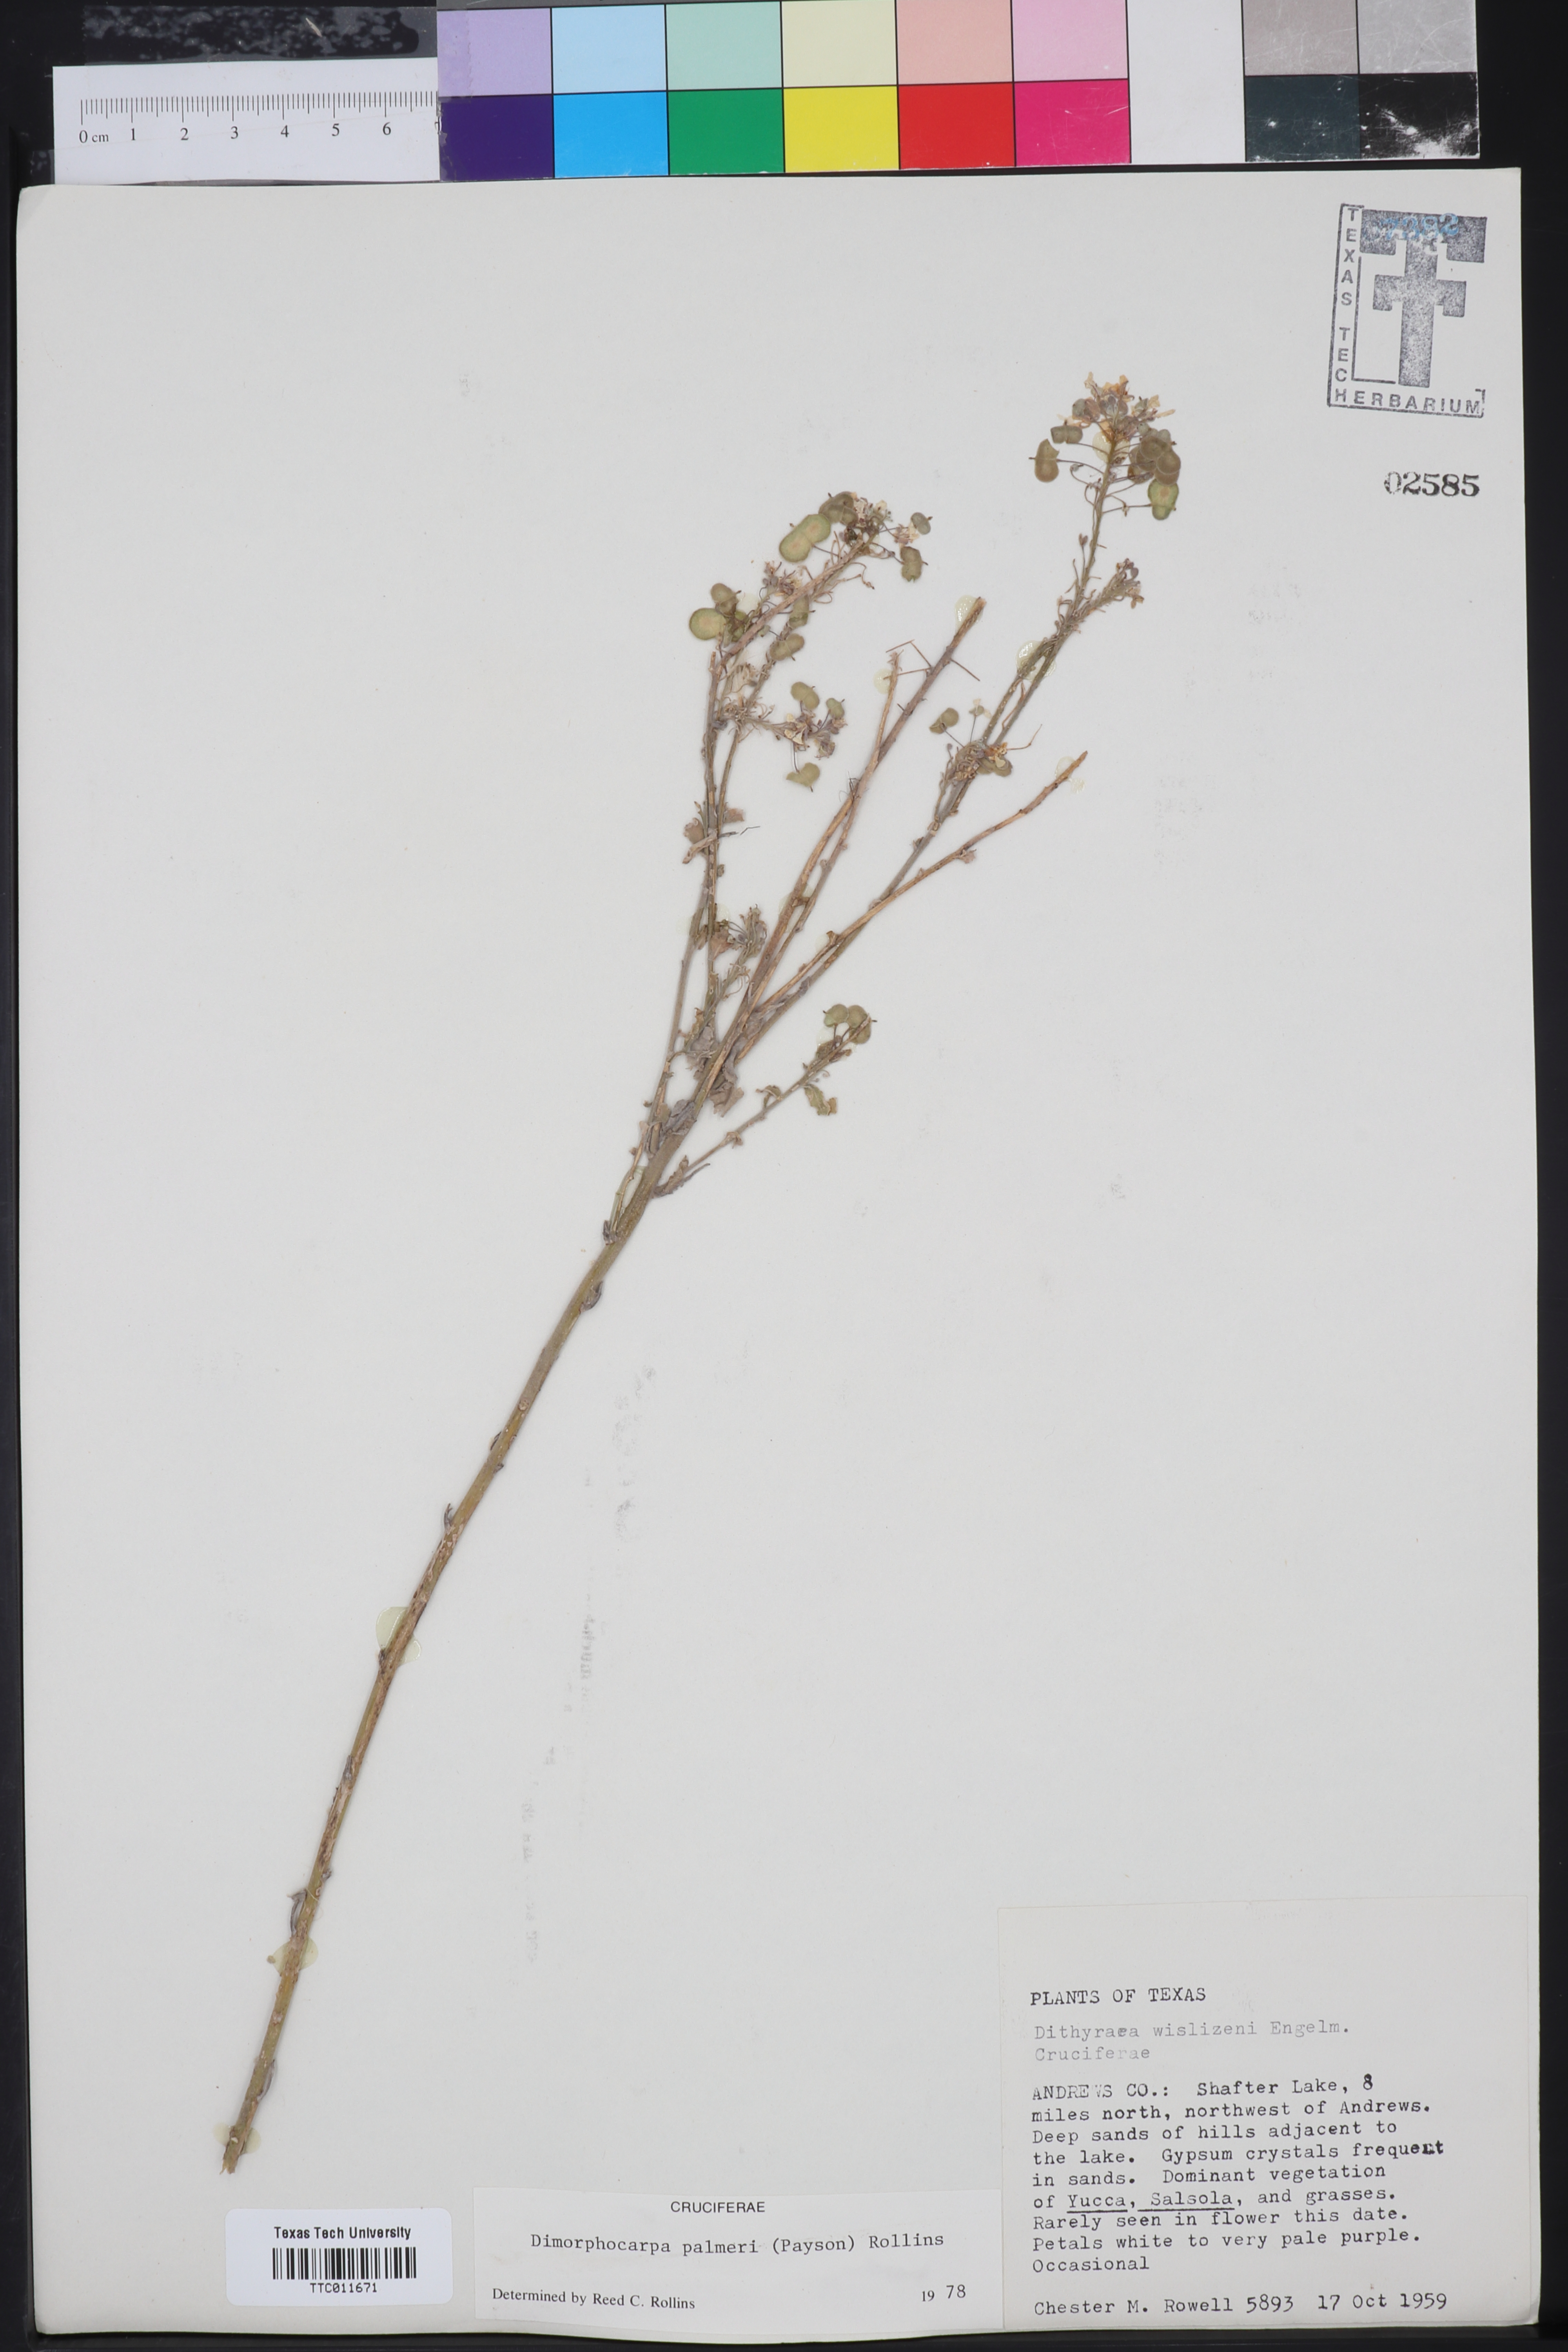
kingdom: Plantae
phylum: Tracheophyta
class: Magnoliopsida
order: Brassicales
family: Brassicaceae
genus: Dimorphocarpa
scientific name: Dimorphocarpa candicans
